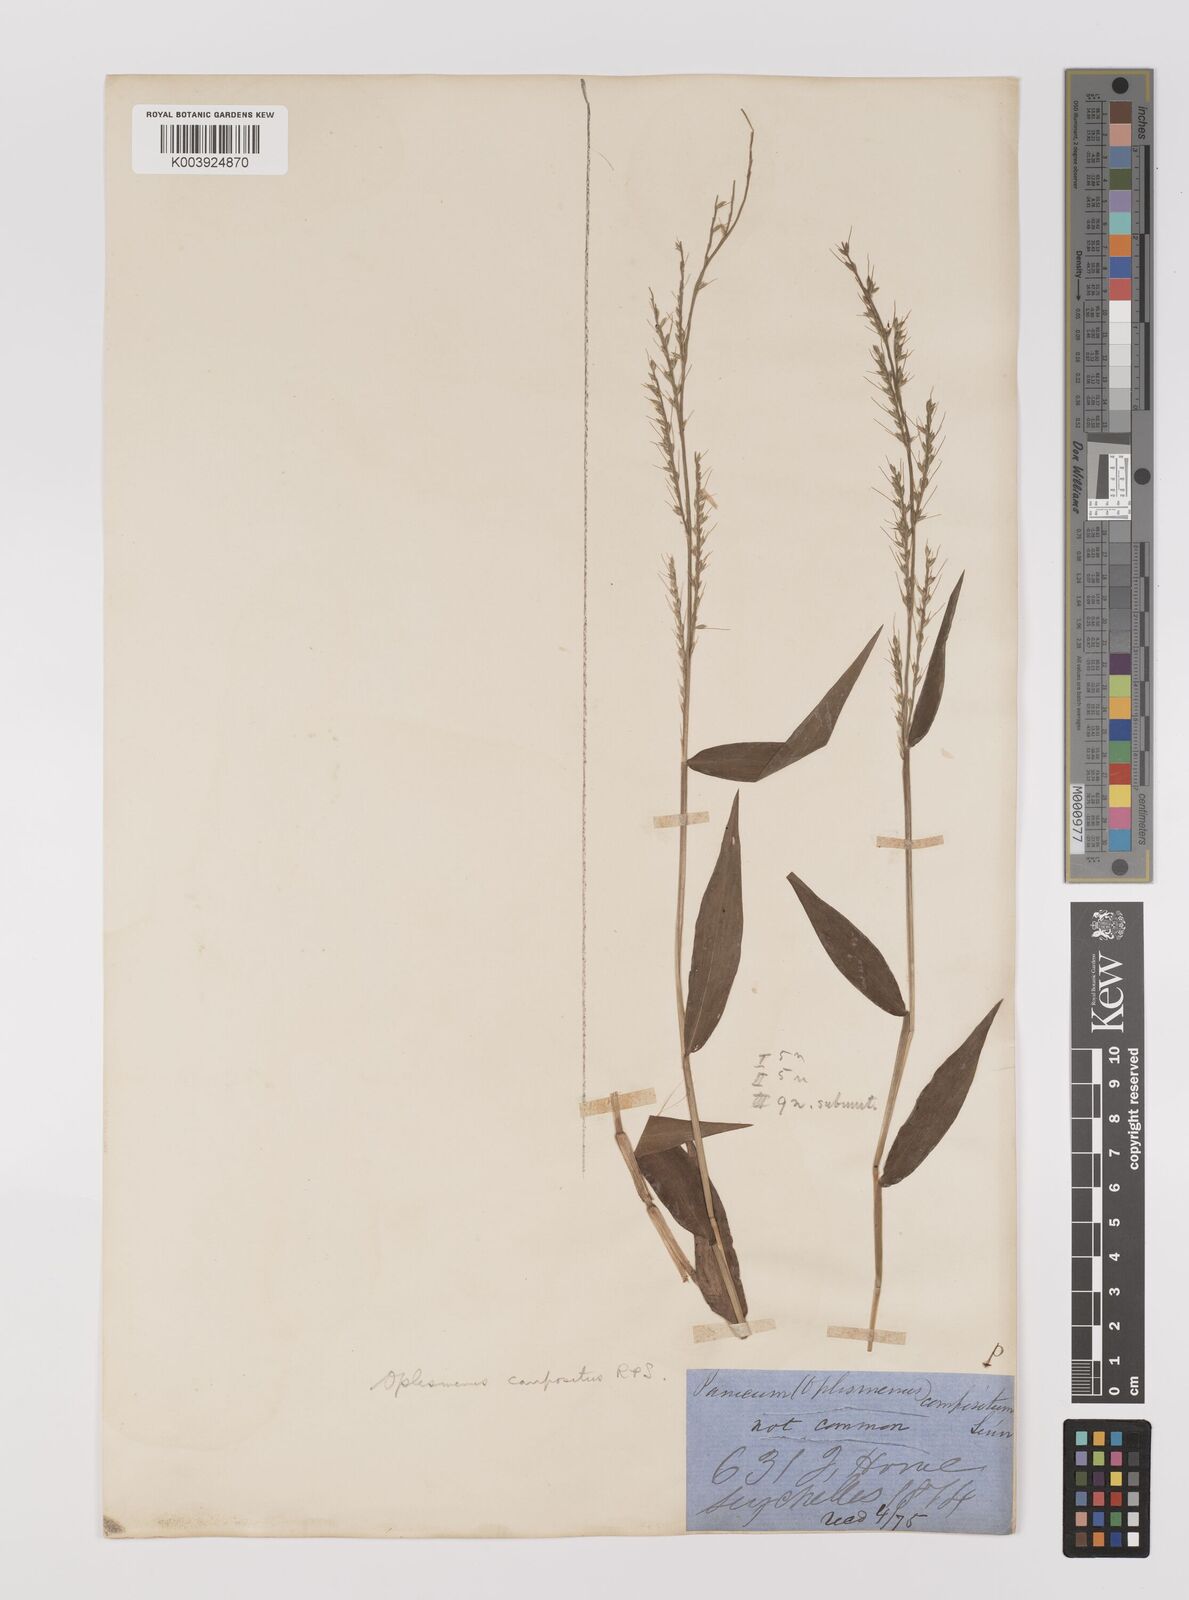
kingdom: Plantae
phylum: Tracheophyta
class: Liliopsida
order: Poales
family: Poaceae
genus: Oplismenus
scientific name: Oplismenus compositus
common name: Running mountain grass
